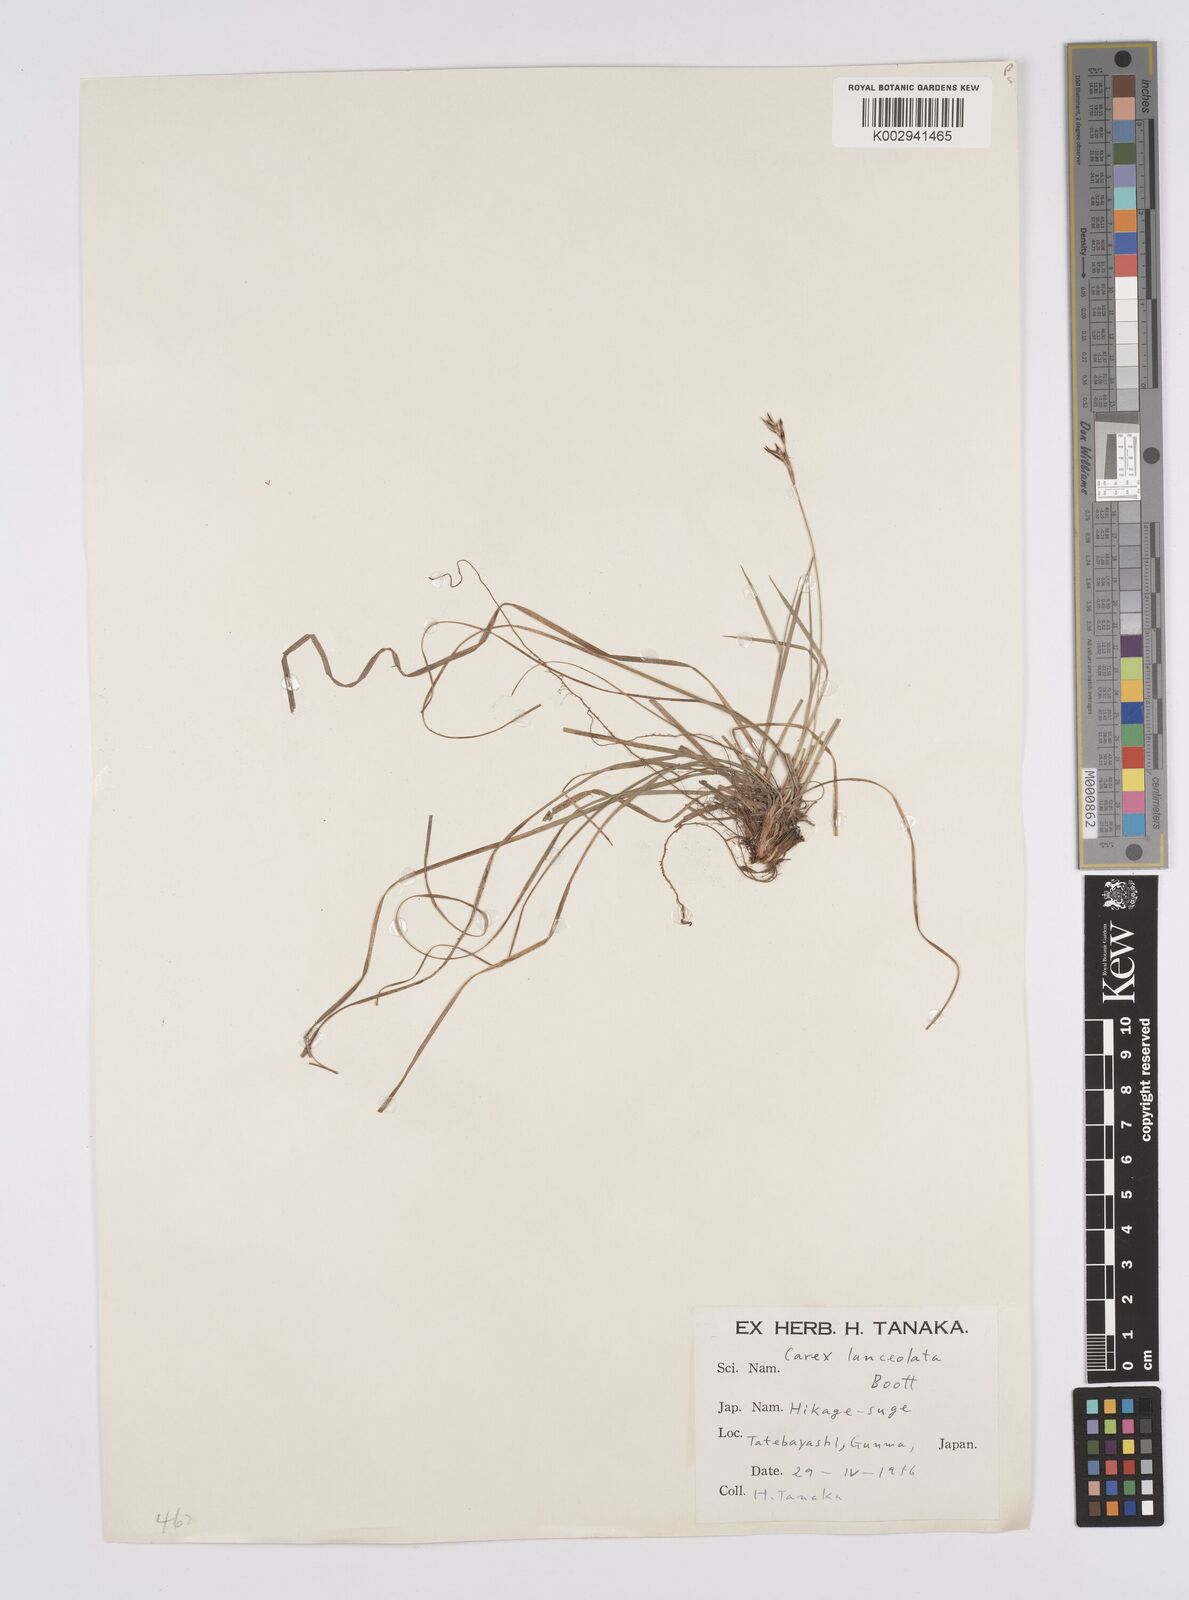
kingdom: Plantae
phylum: Tracheophyta
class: Liliopsida
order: Poales
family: Cyperaceae
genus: Carex
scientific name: Carex lanceolata
